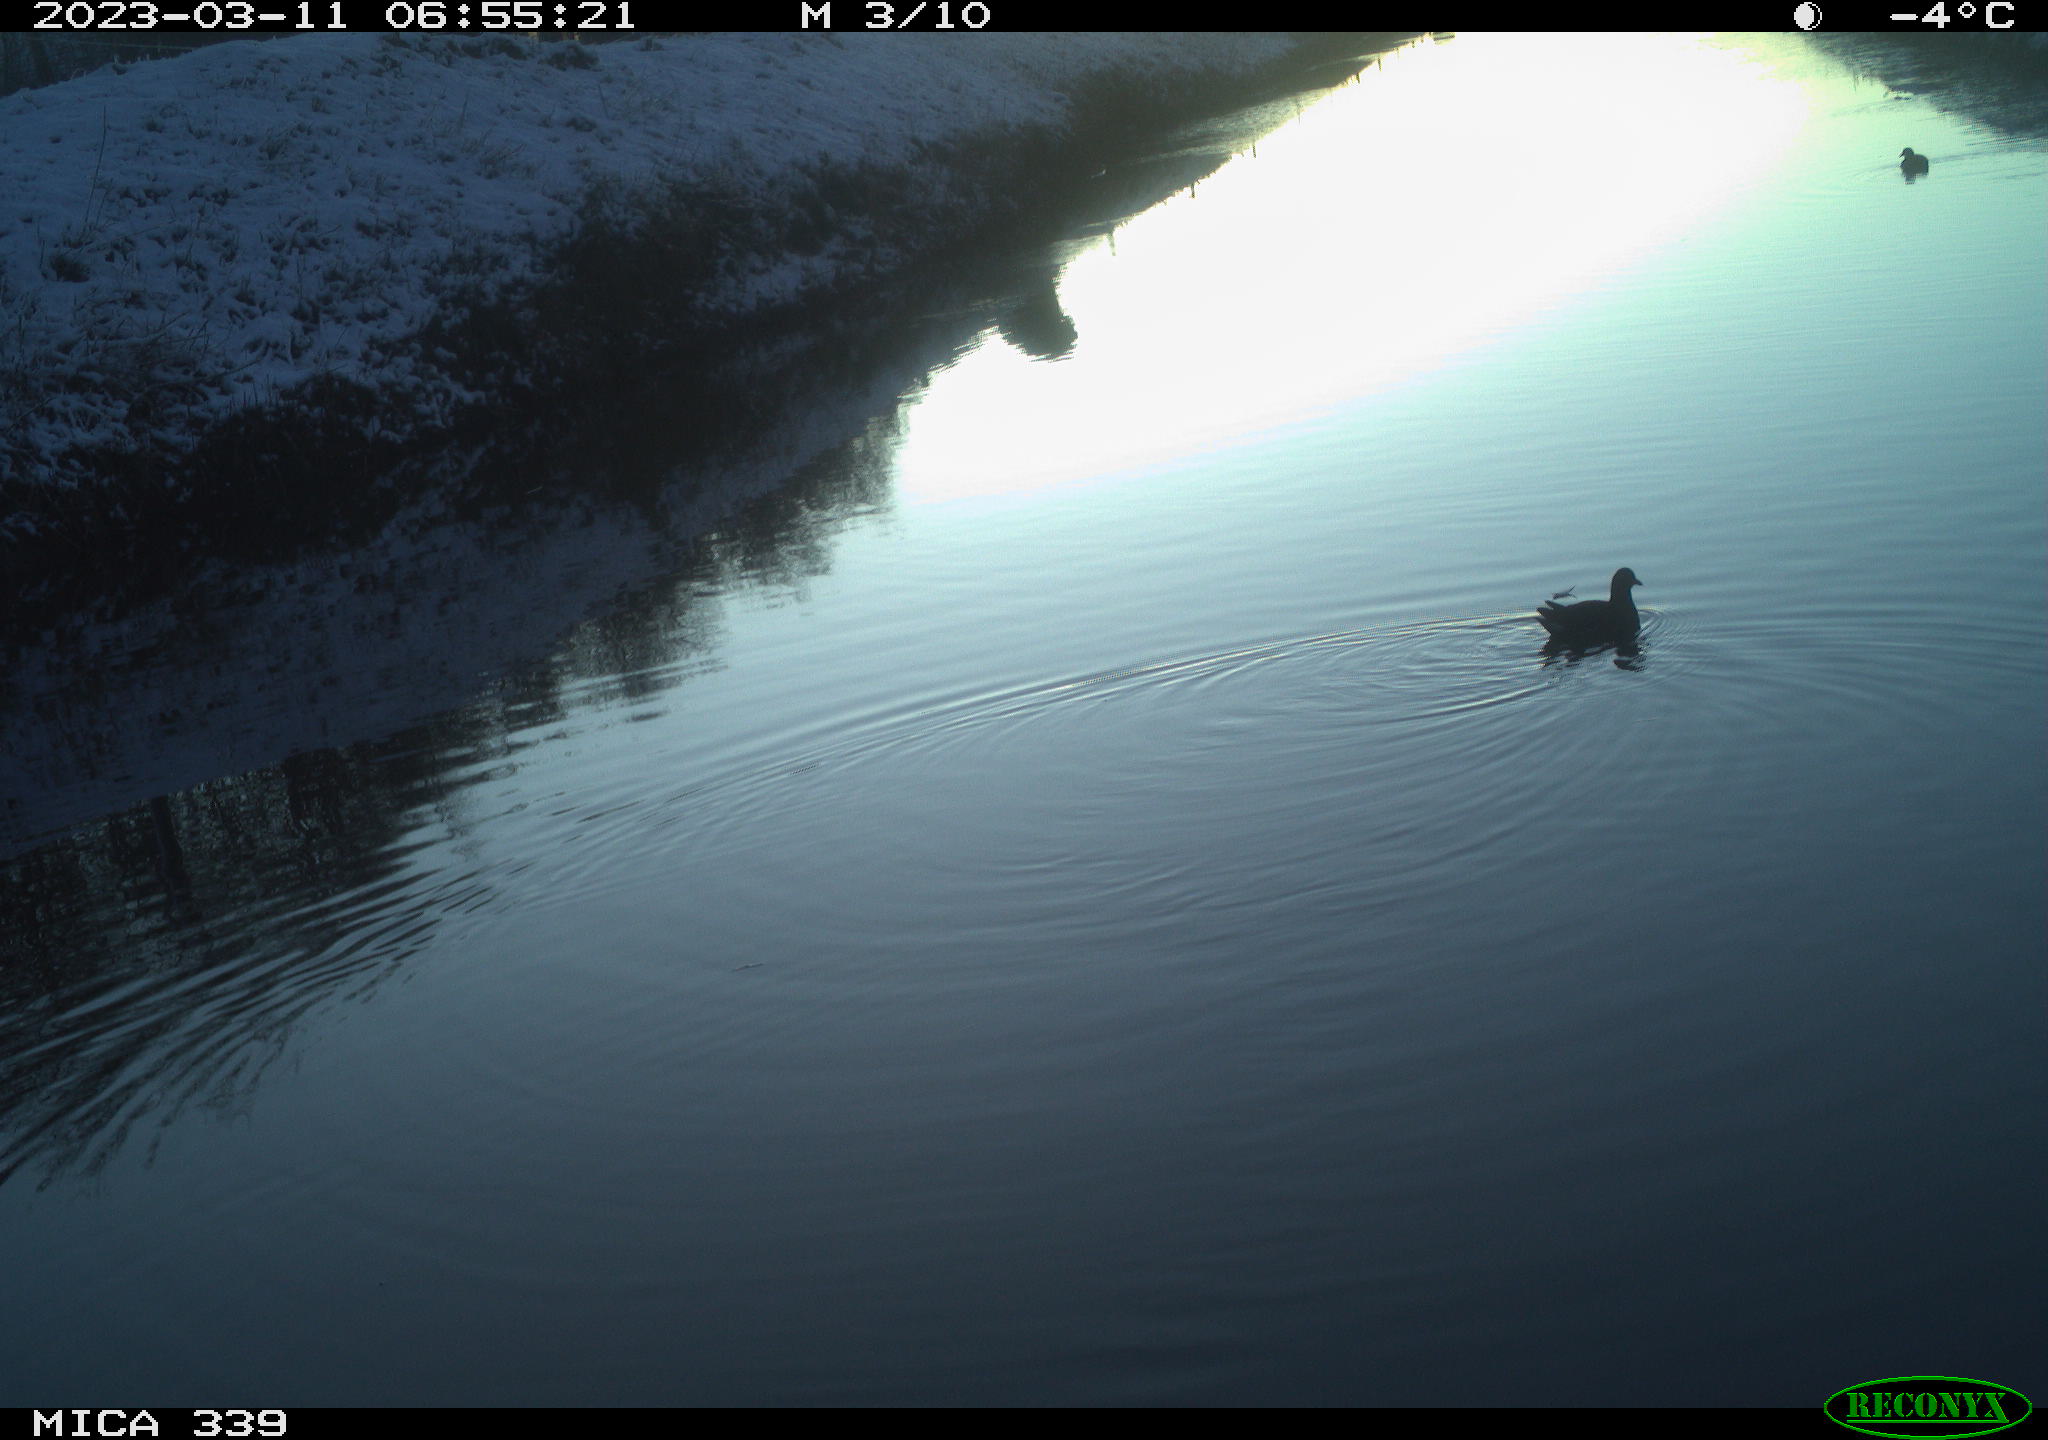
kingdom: Animalia
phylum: Chordata
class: Aves
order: Gruiformes
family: Rallidae
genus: Gallinula
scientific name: Gallinula chloropus
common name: Common moorhen
